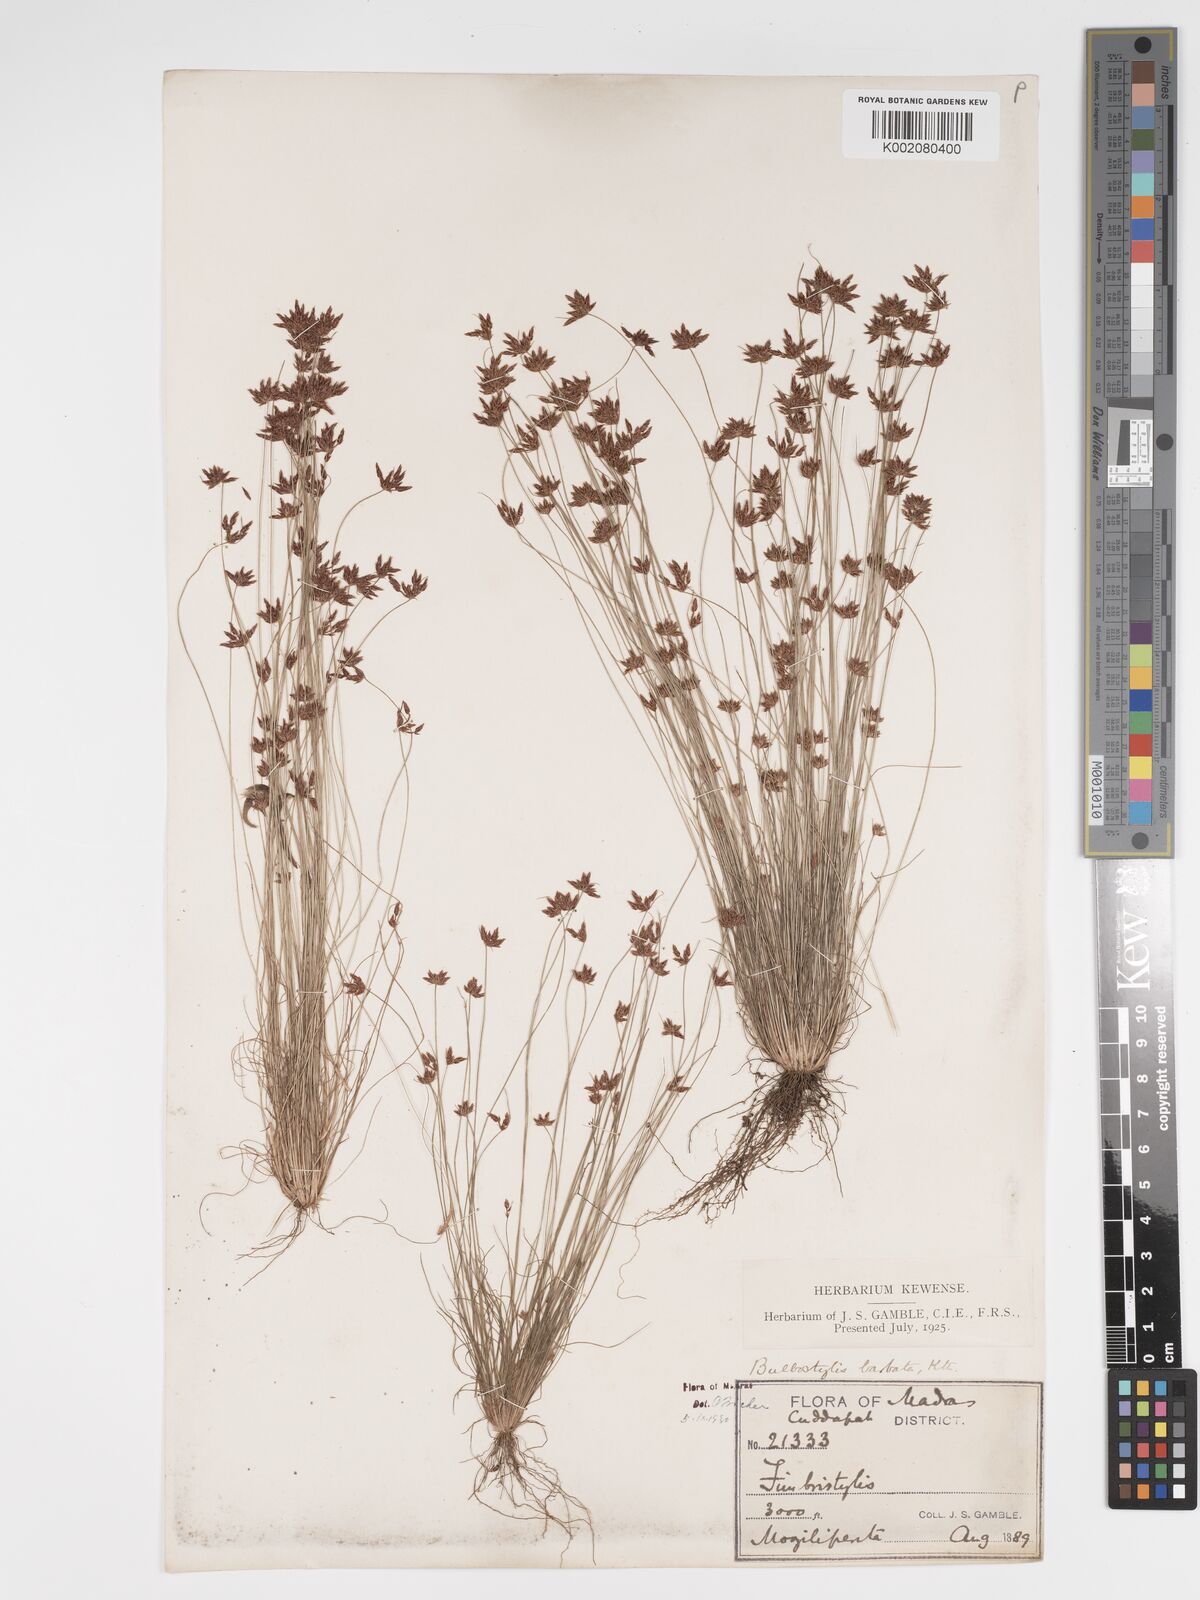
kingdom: Plantae
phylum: Tracheophyta
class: Liliopsida
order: Poales
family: Cyperaceae
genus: Bulbostylis
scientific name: Bulbostylis barbata
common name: Watergrass
